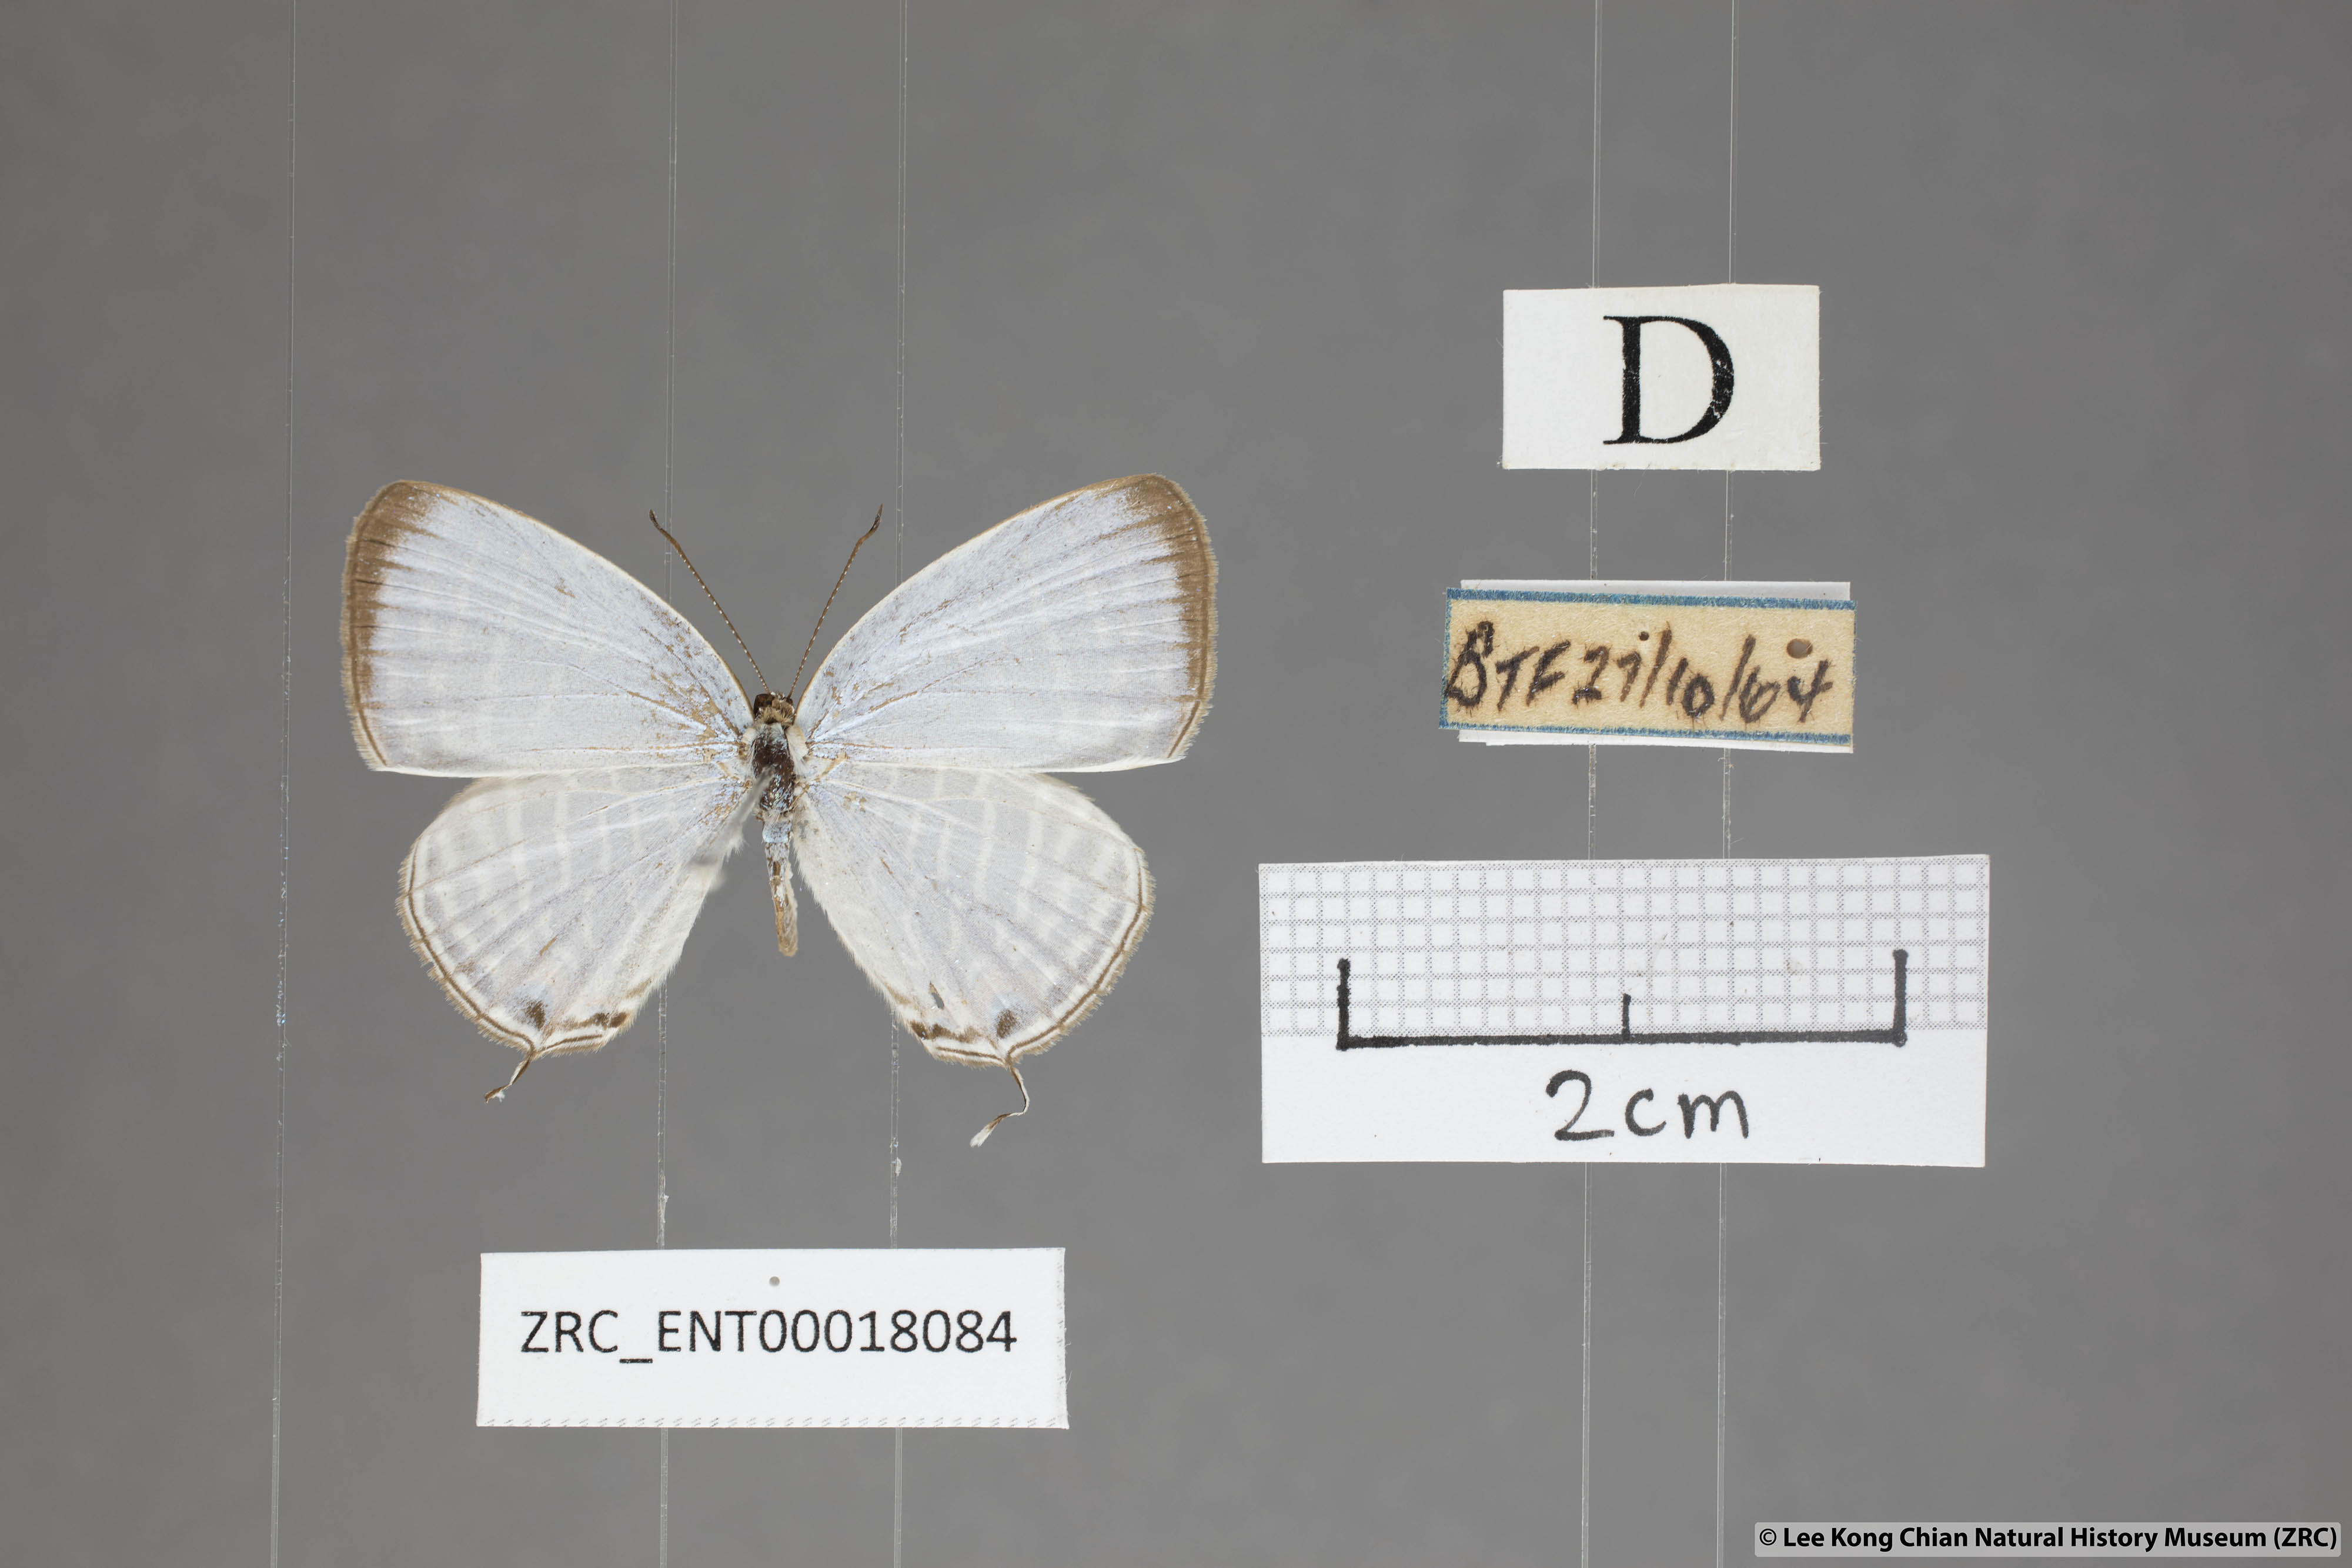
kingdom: Animalia
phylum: Arthropoda
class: Insecta
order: Lepidoptera
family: Lycaenidae
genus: Jamides
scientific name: Jamides celeno
